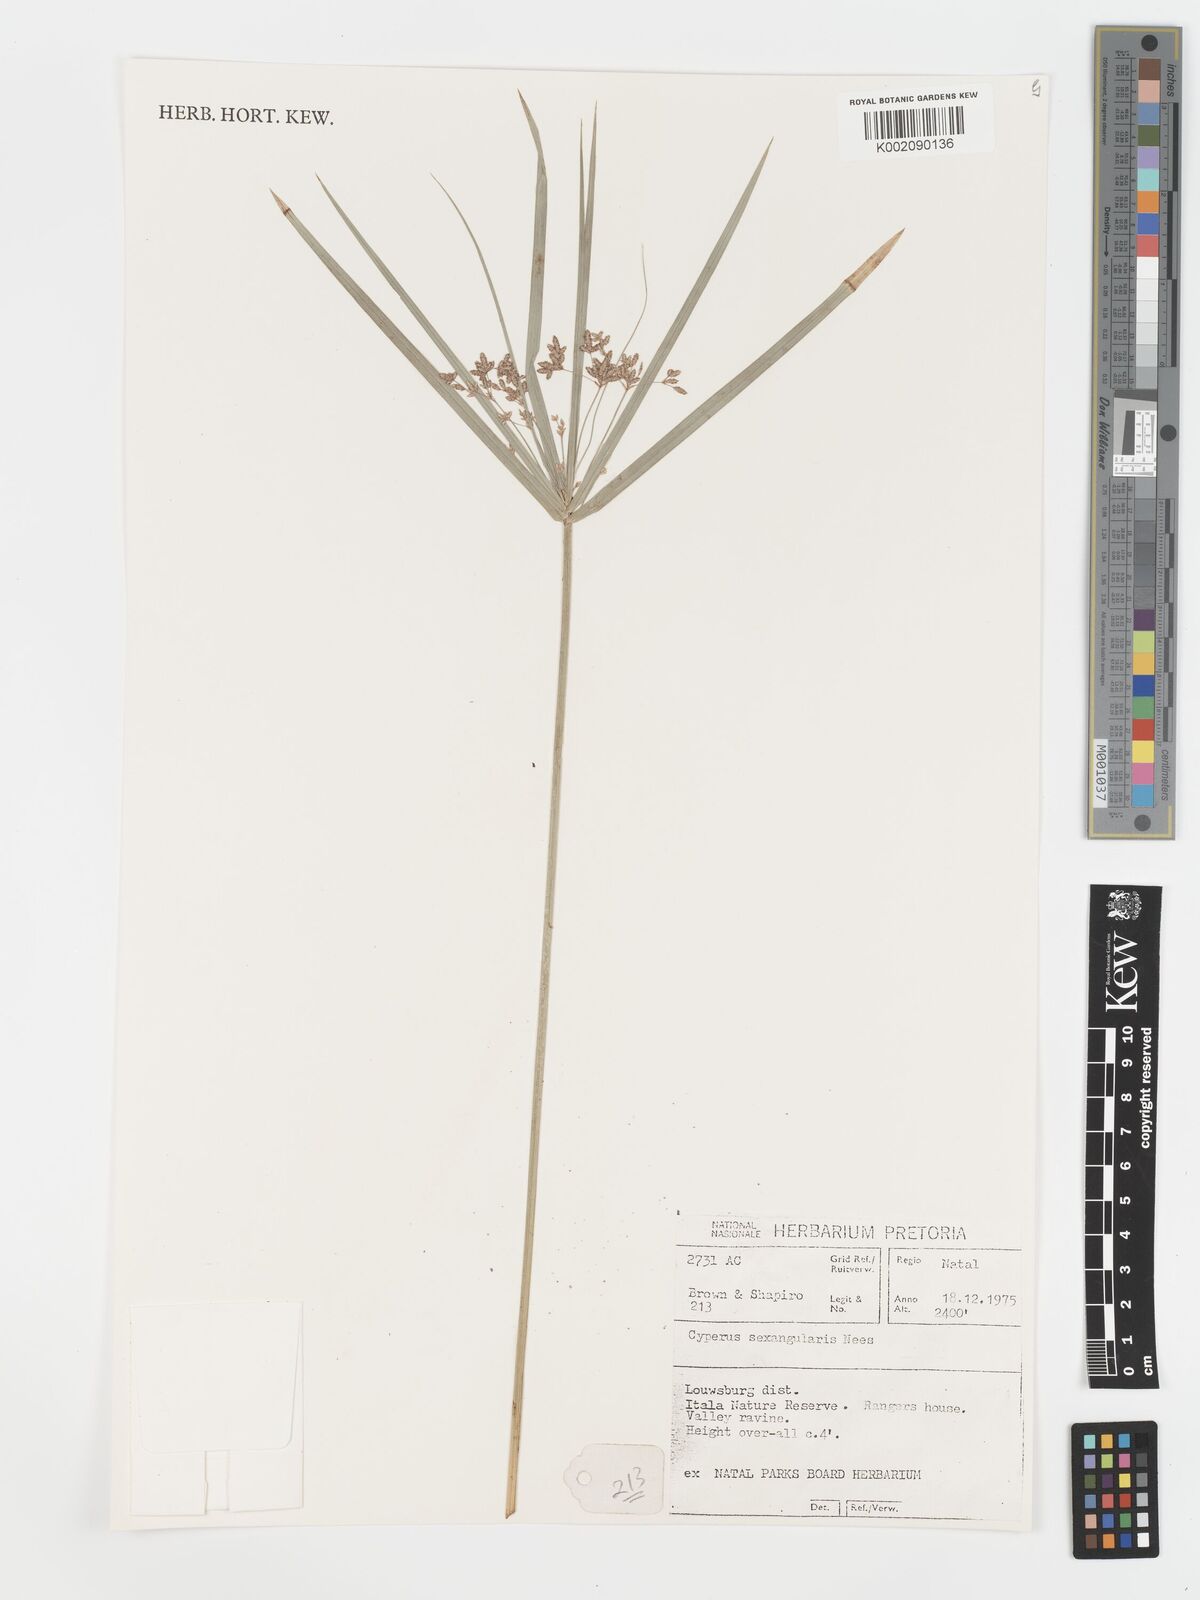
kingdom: Plantae
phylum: Tracheophyta
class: Liliopsida
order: Poales
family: Cyperaceae
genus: Cyperus
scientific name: Cyperus sexangularis
